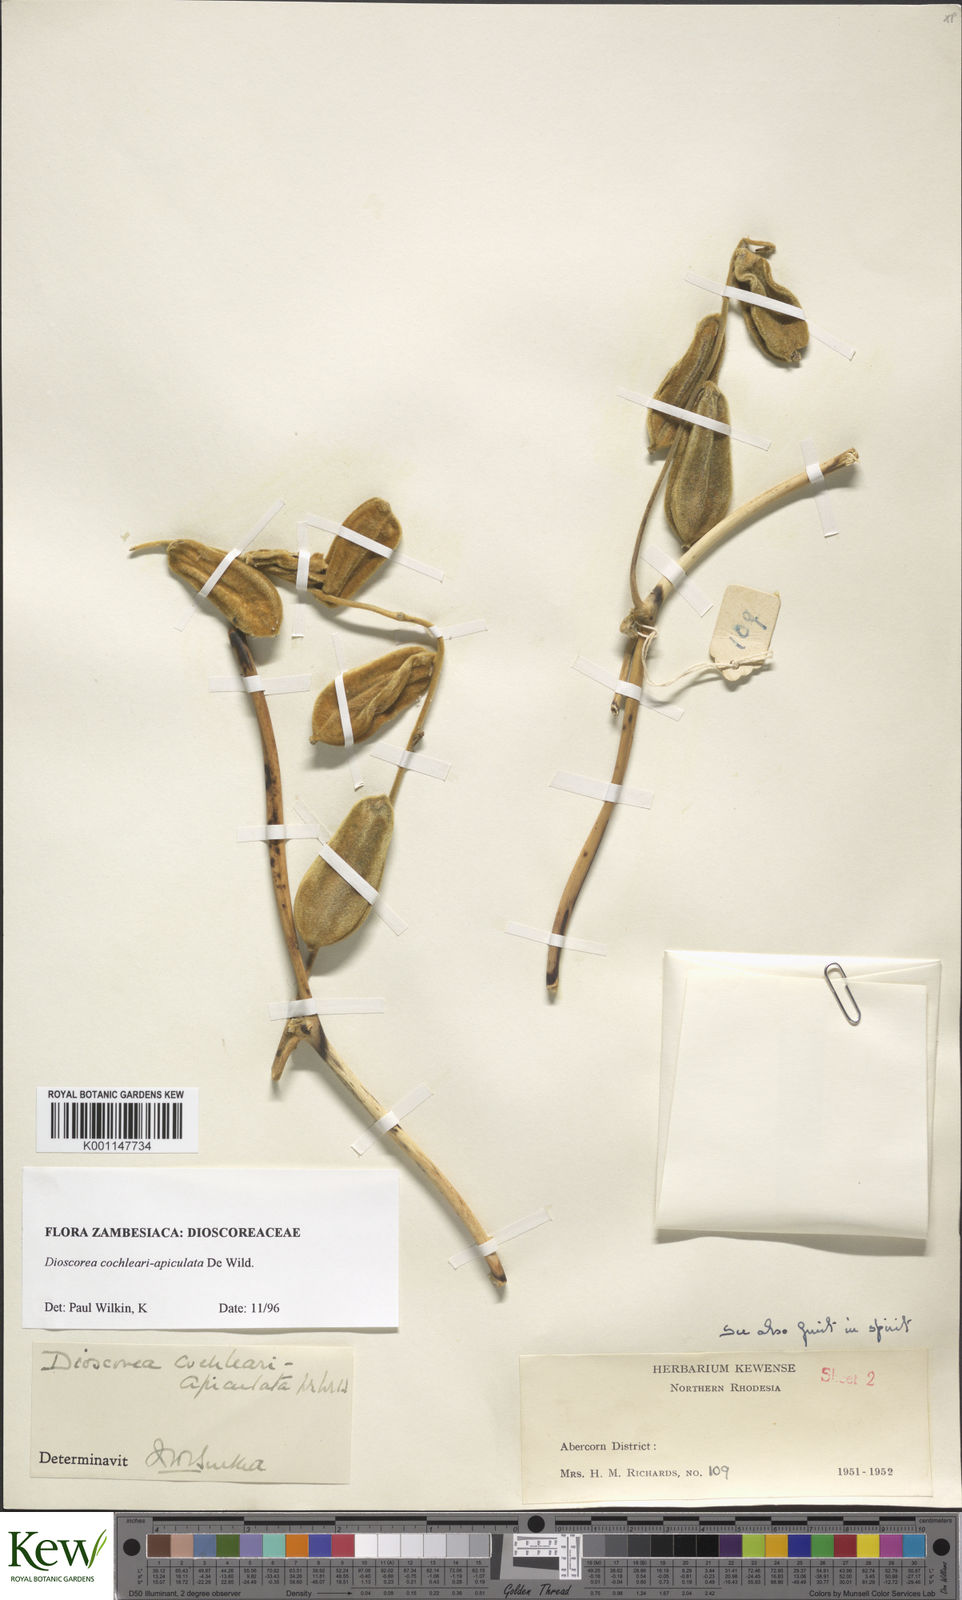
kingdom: Plantae
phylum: Tracheophyta
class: Liliopsida
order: Dioscoreales
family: Dioscoreaceae
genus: Dioscorea
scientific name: Dioscorea cochleariapiculata
